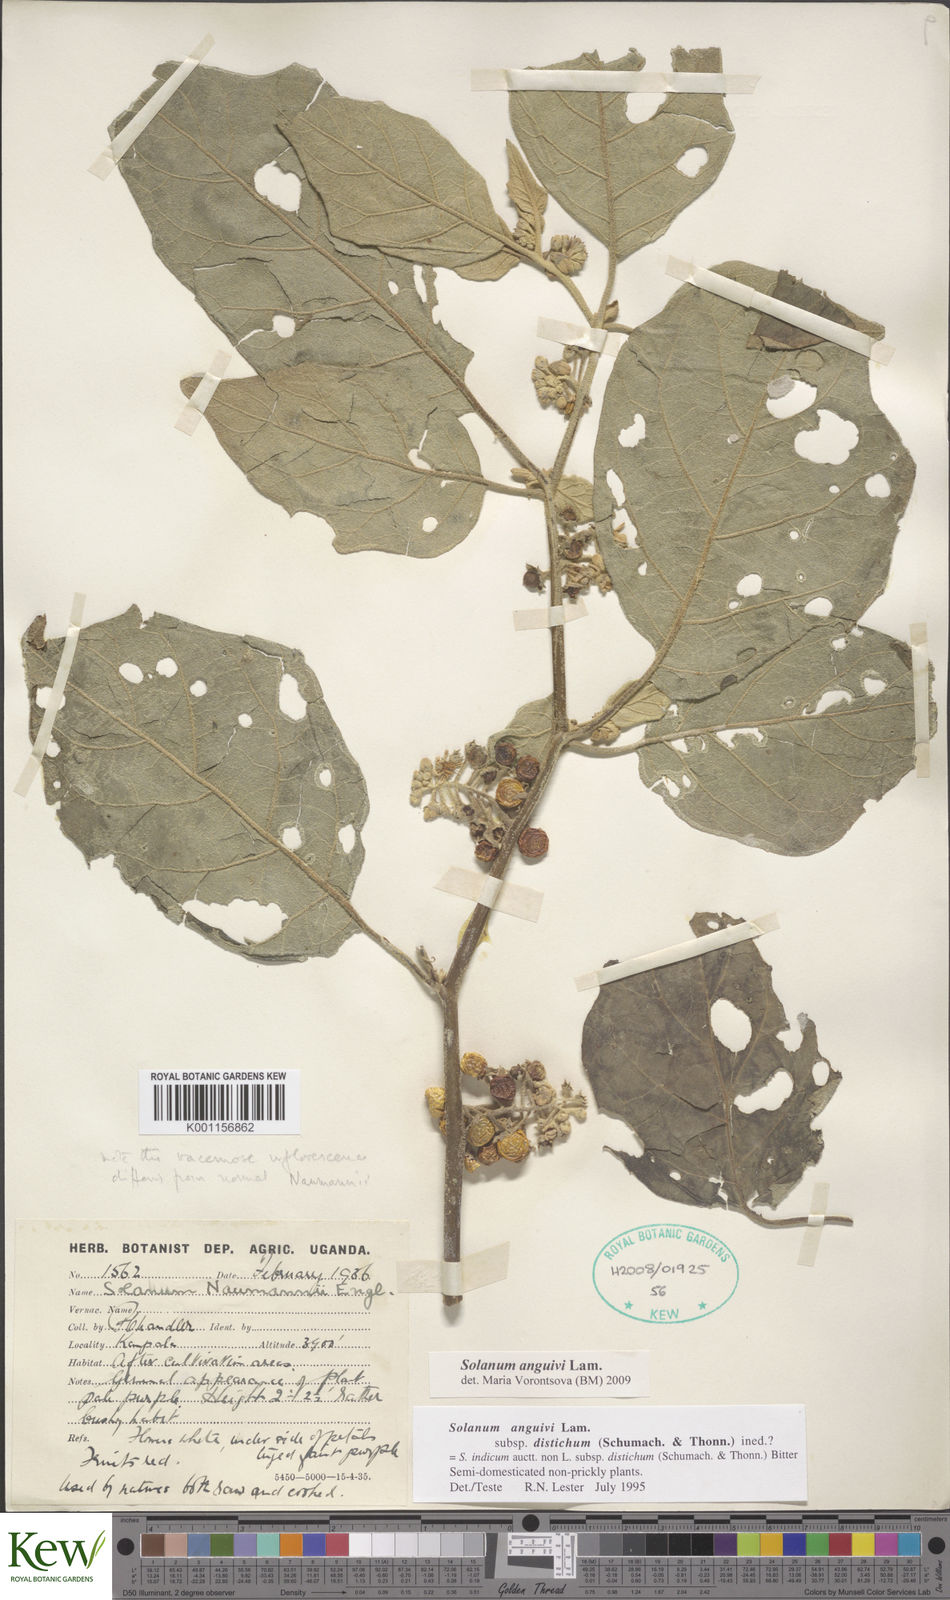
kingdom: Plantae
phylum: Tracheophyta
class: Magnoliopsida
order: Solanales
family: Solanaceae
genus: Solanum
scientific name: Solanum anguivi
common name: Forest bitterberry
